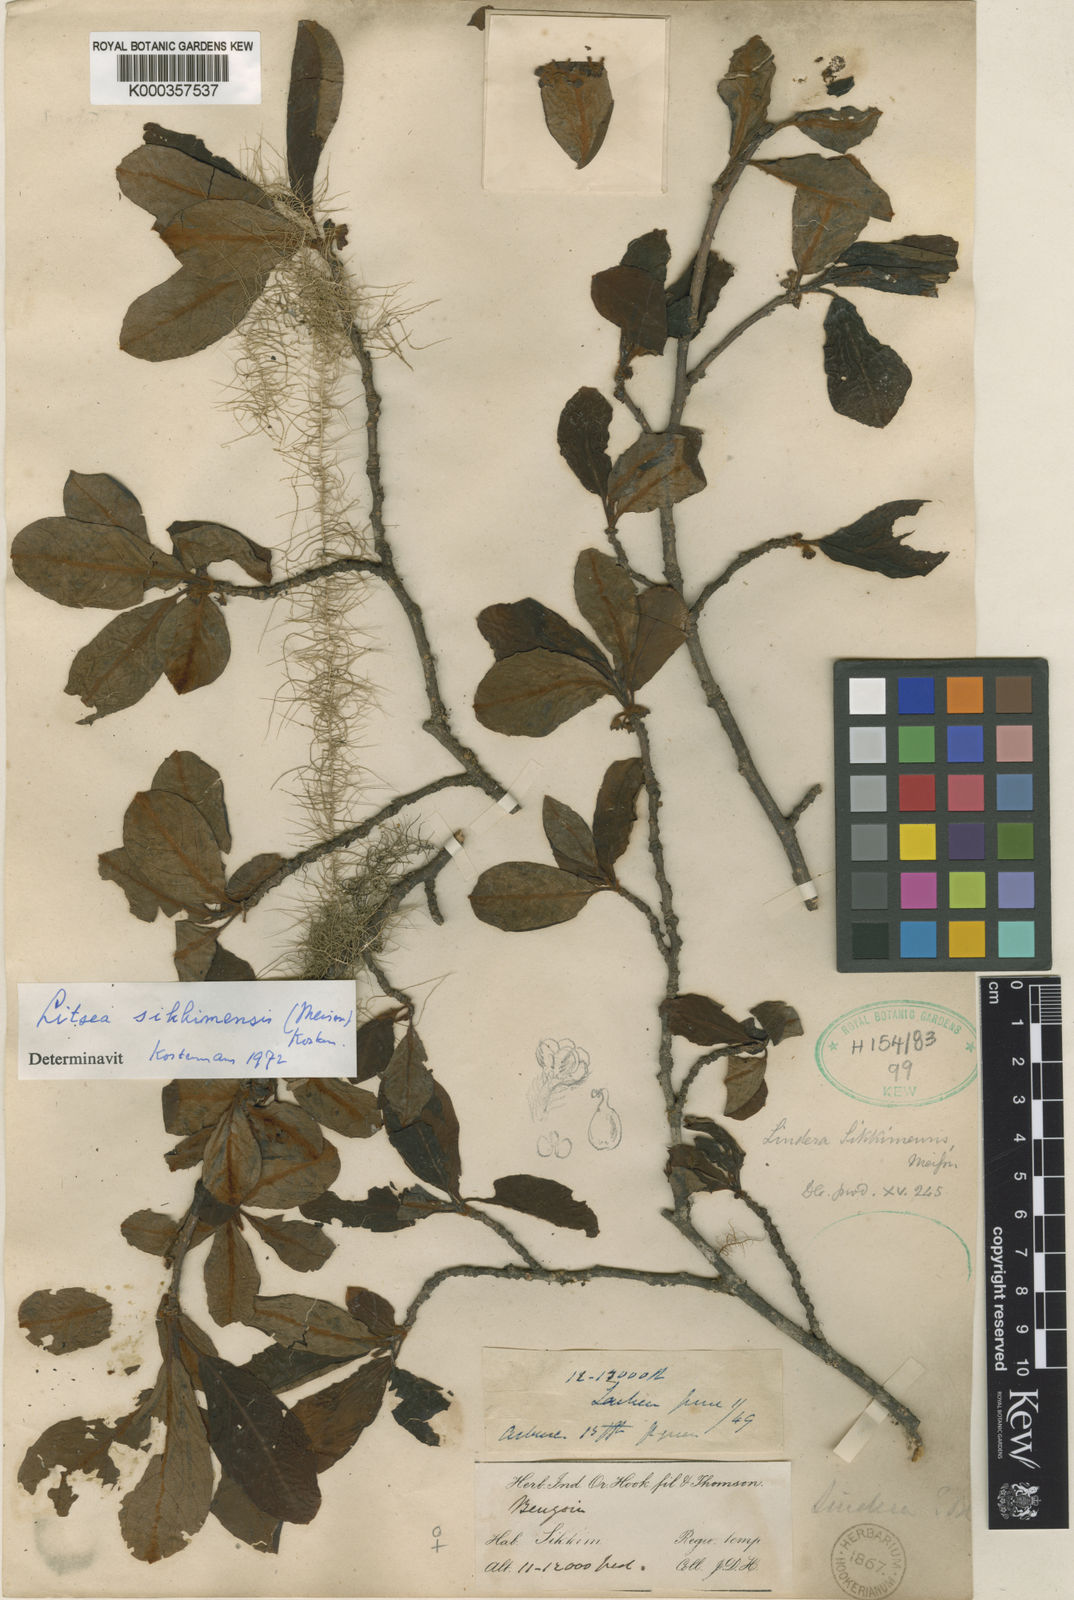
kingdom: Plantae
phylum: Tracheophyta
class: Magnoliopsida
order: Laurales
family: Lauraceae
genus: Litsea
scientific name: Litsea sericea
